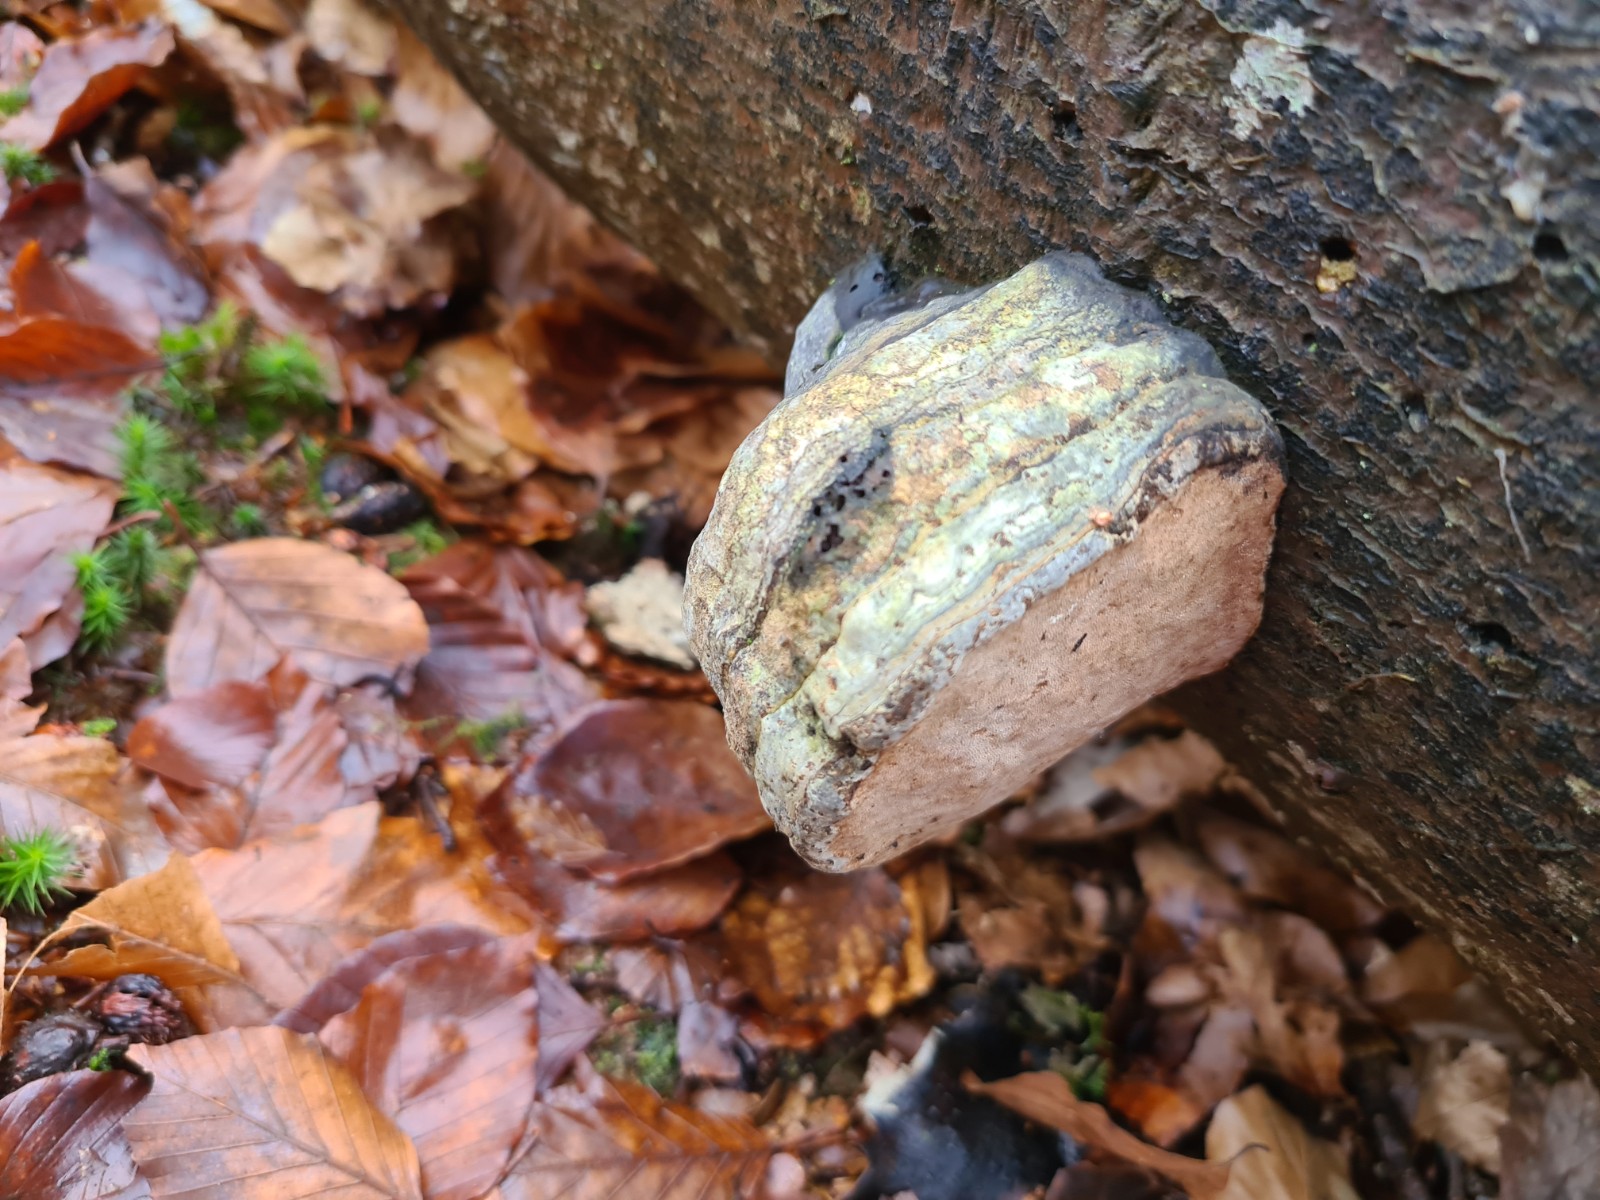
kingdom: Fungi
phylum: Basidiomycota
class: Agaricomycetes
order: Polyporales
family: Polyporaceae
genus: Fomes
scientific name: Fomes fomentarius
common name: tøndersvamp
